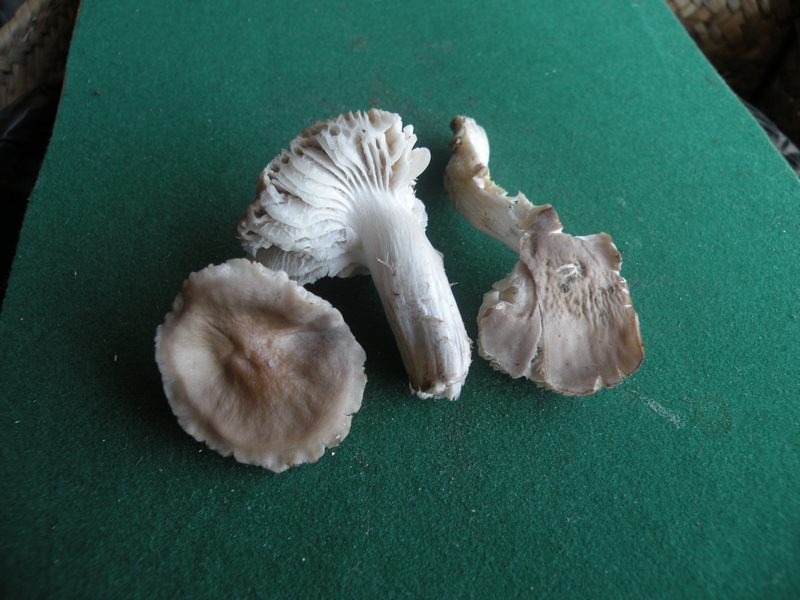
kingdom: Fungi
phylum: Basidiomycota
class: Agaricomycetes
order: Agaricales
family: Tricholomataceae
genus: Dermoloma
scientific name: Dermoloma cuneifolium
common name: eng-nonnehat
